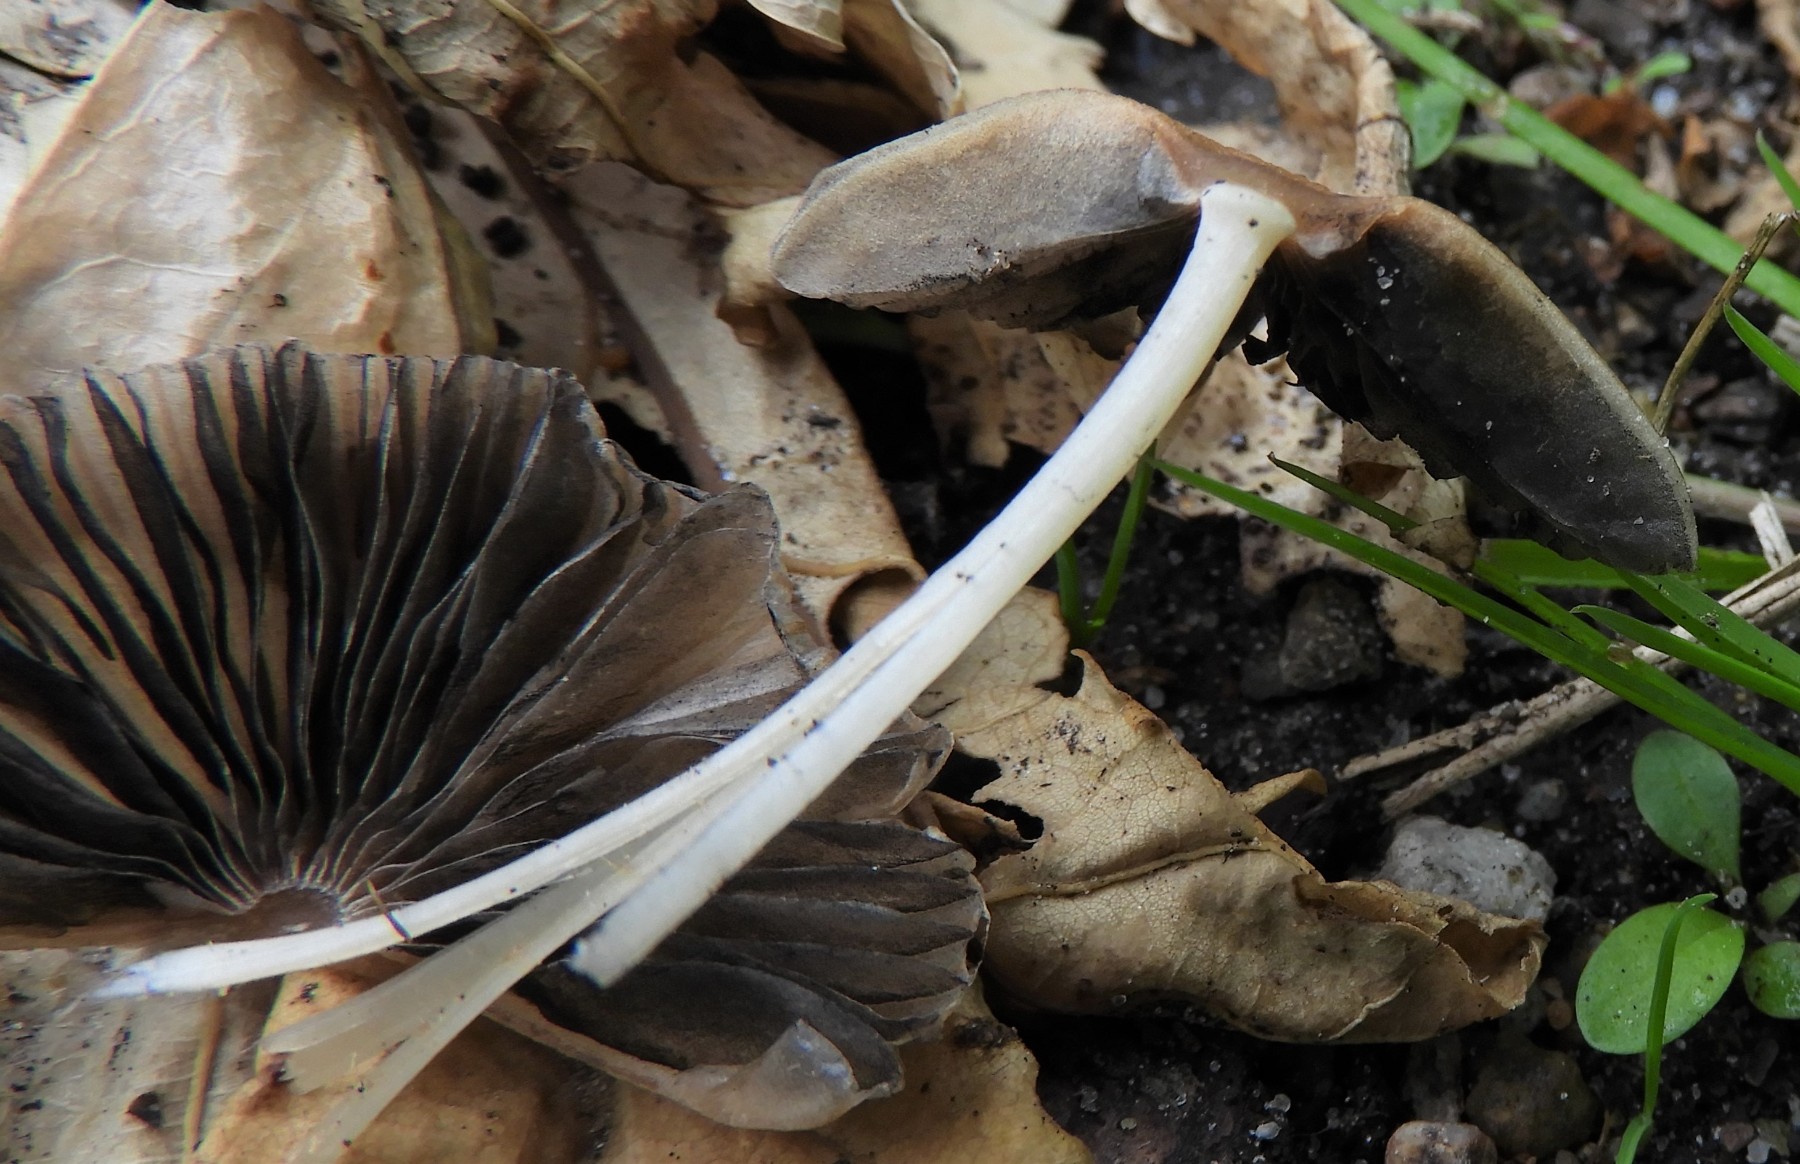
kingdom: Fungi
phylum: Basidiomycota
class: Agaricomycetes
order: Agaricales
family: Psathyrellaceae
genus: Parasola
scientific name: Parasola
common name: hjulhat
